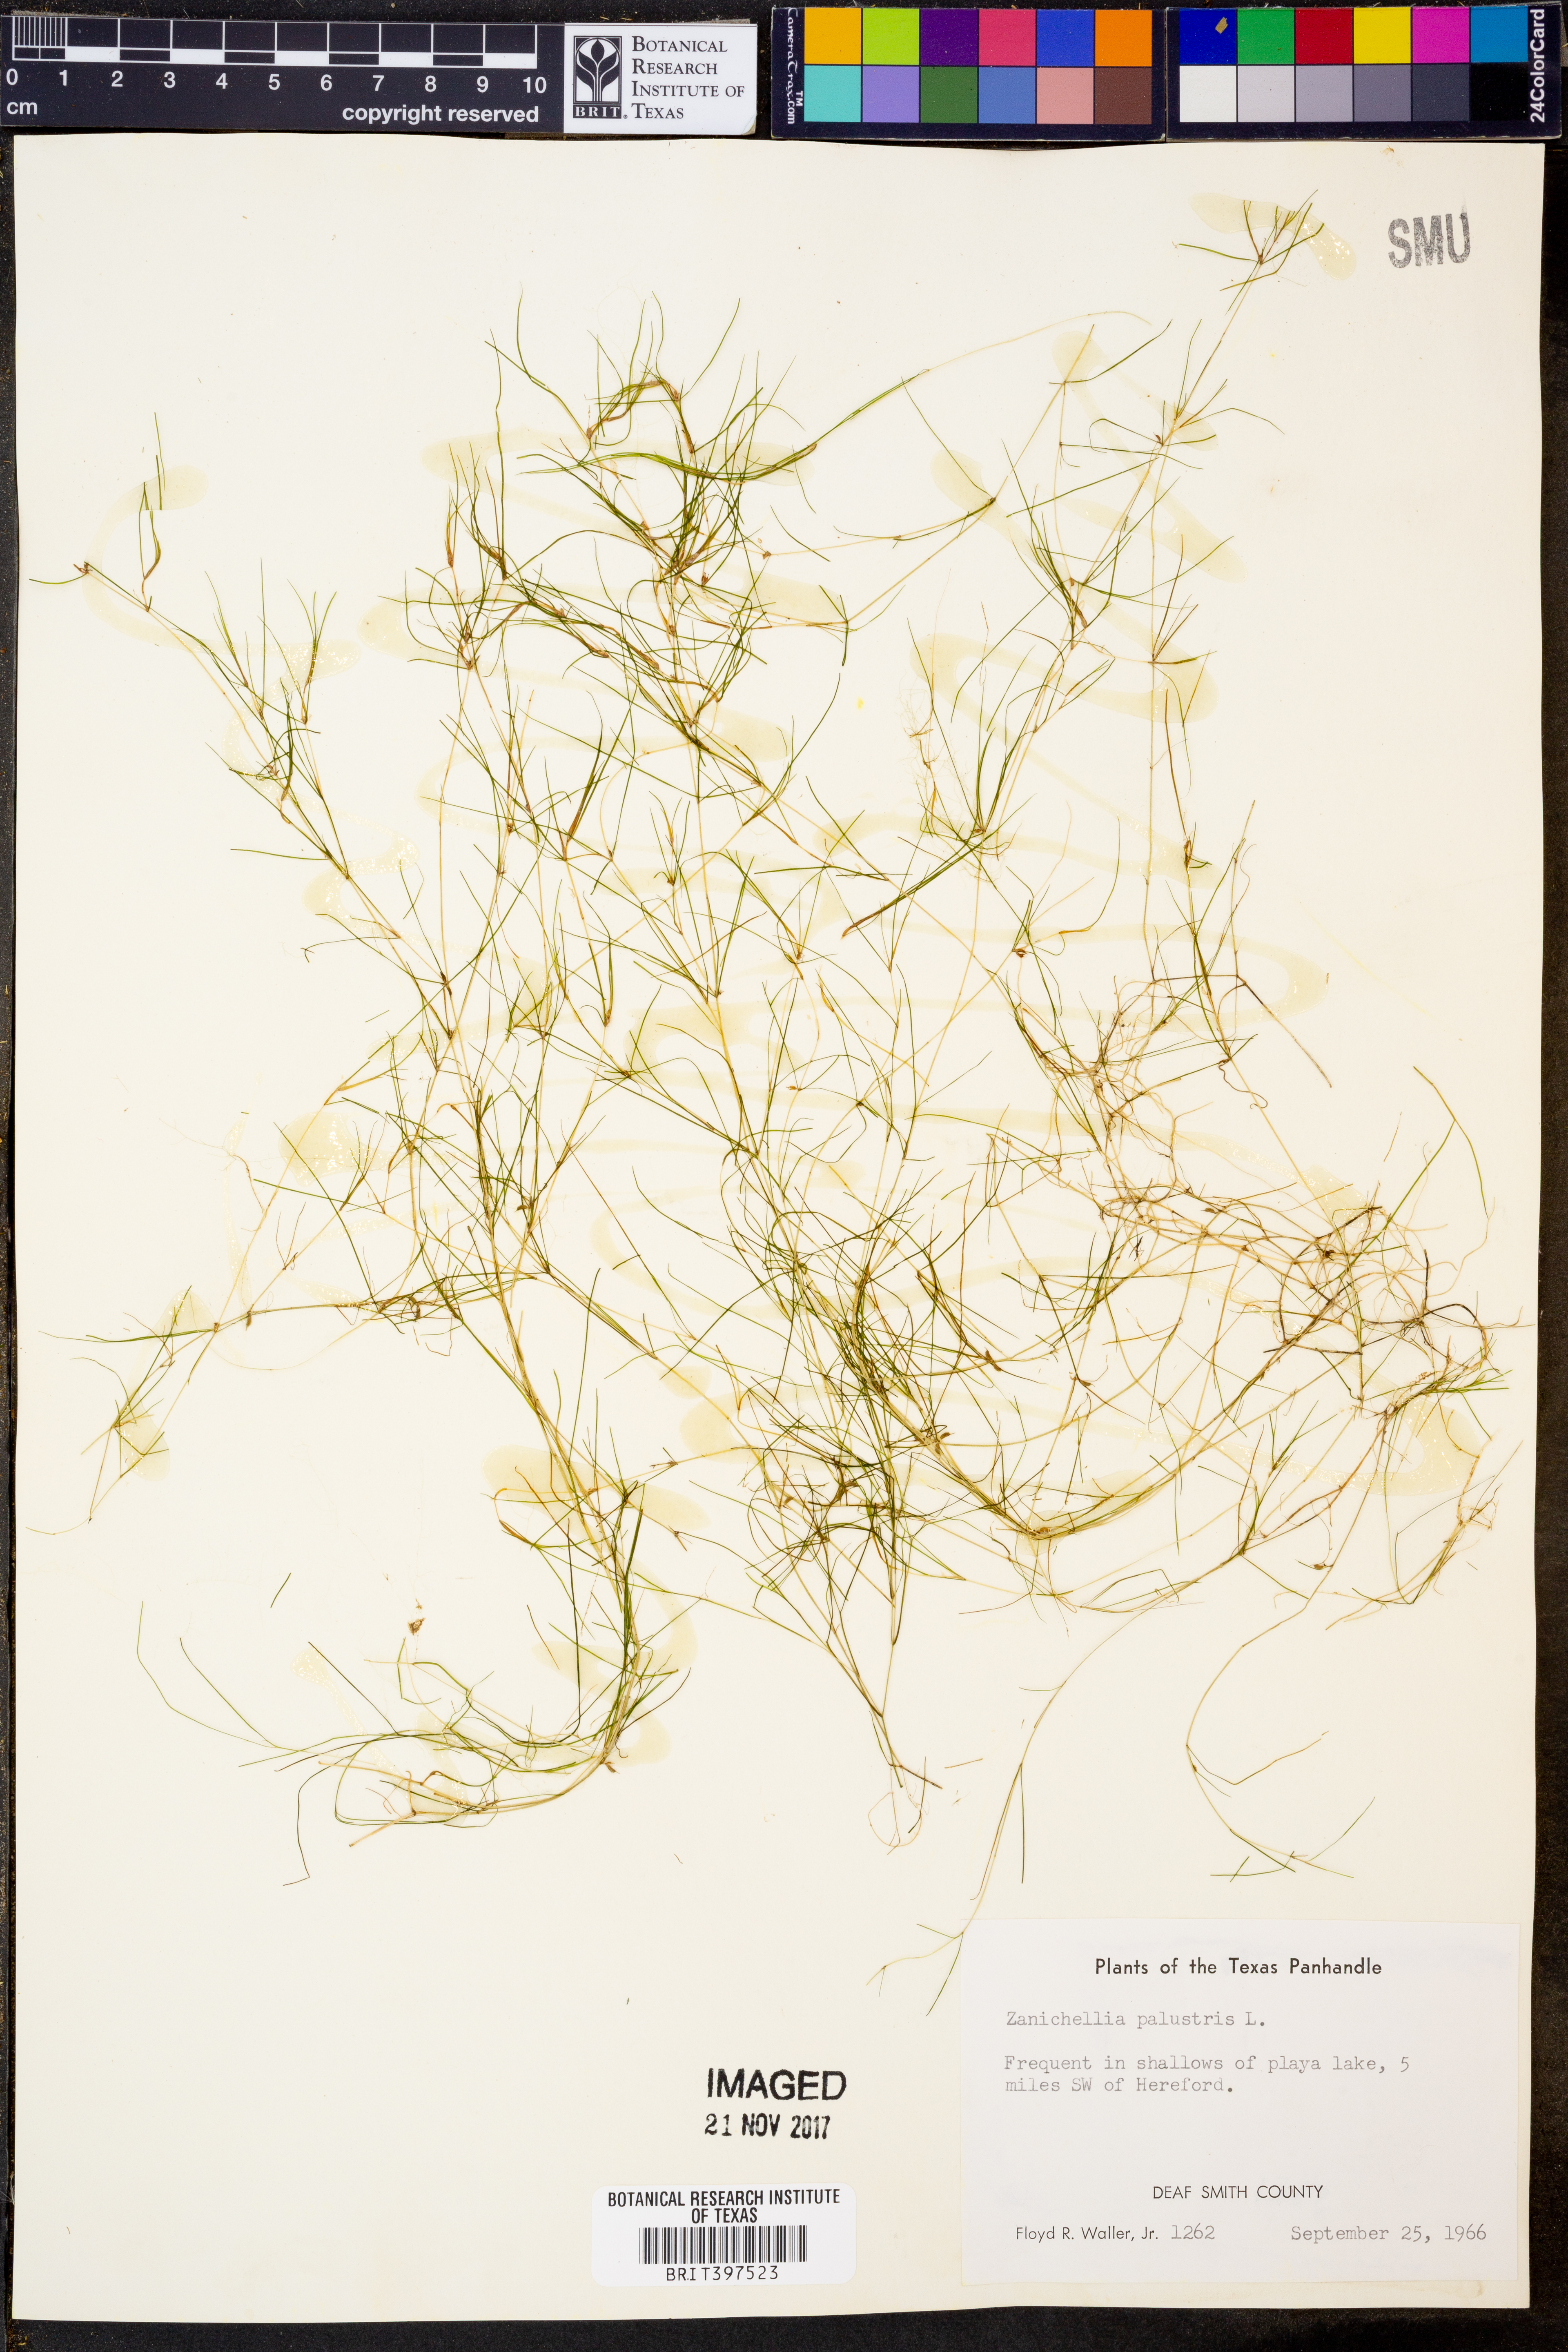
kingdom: Plantae
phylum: Tracheophyta
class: Liliopsida
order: Alismatales
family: Potamogetonaceae
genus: Zannichellia
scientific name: Zannichellia palustris
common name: Horned pondweed
